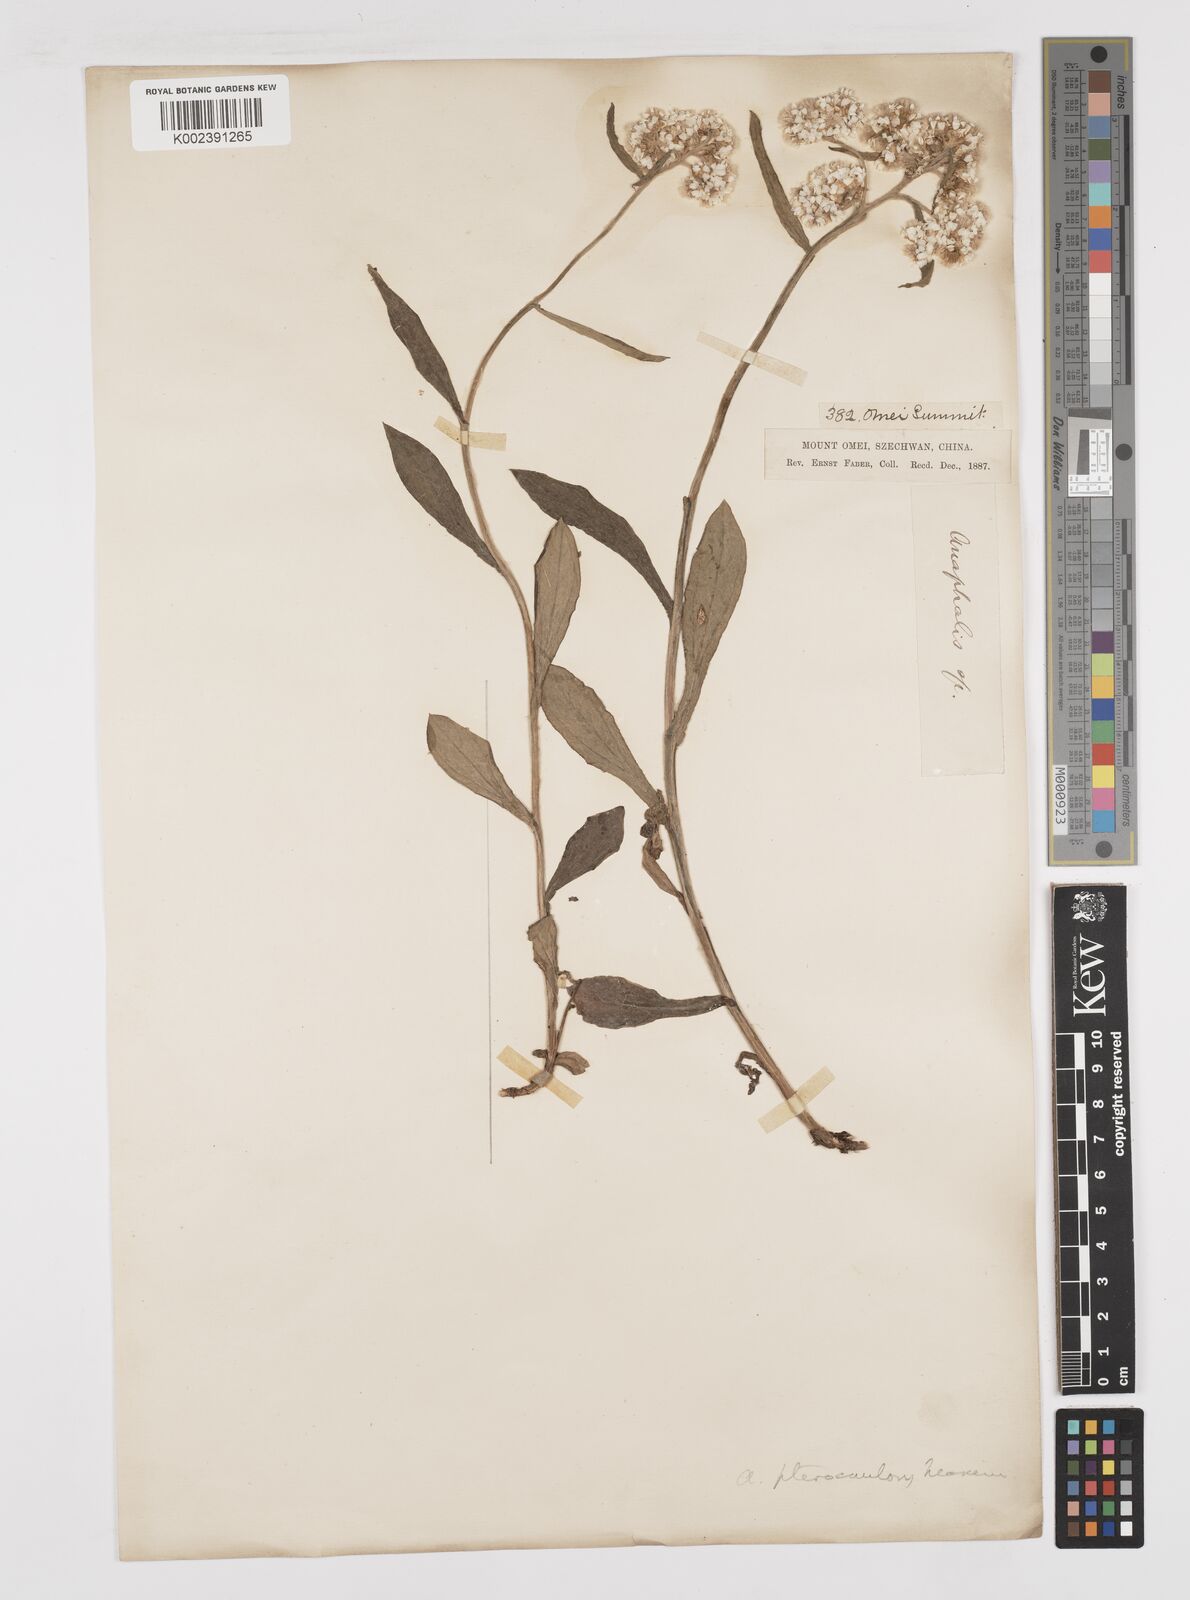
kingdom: Plantae
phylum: Tracheophyta
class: Magnoliopsida
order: Asterales
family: Asteraceae
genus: Anaphalis
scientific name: Anaphalis sinica
